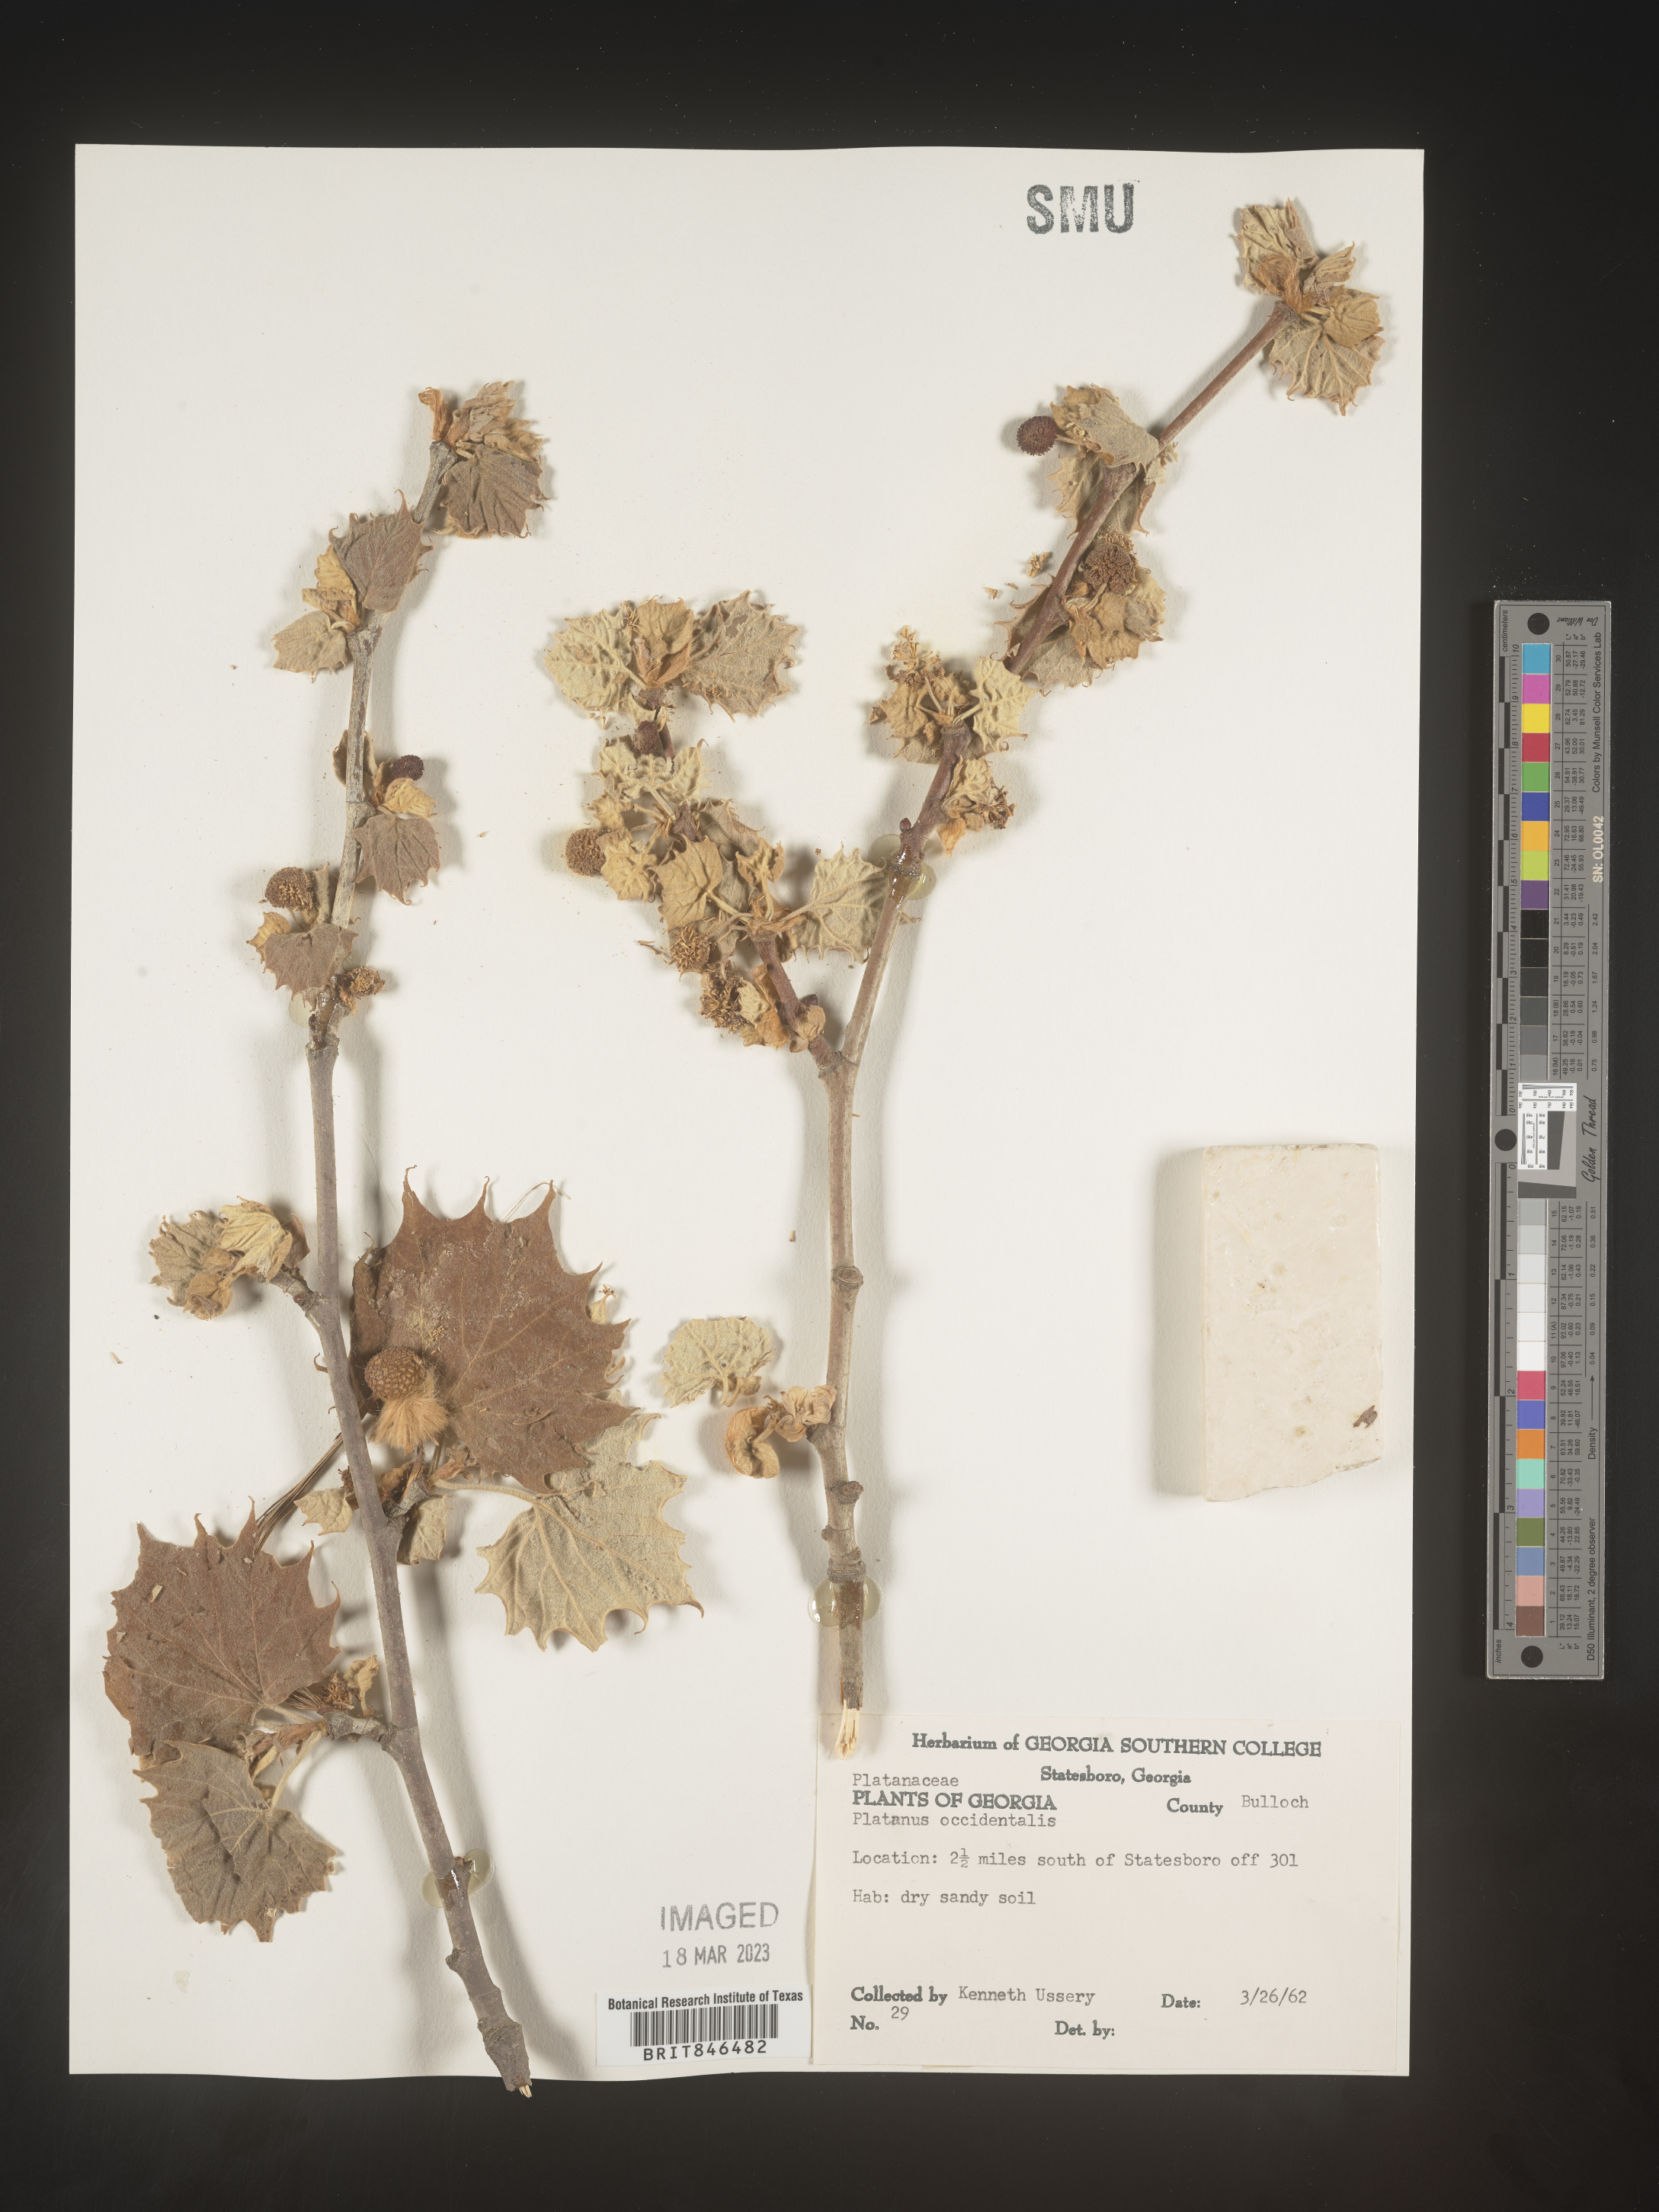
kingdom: Plantae
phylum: Tracheophyta
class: Magnoliopsida
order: Proteales
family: Platanaceae
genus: Platanus
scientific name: Platanus occidentalis
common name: American sycamore
